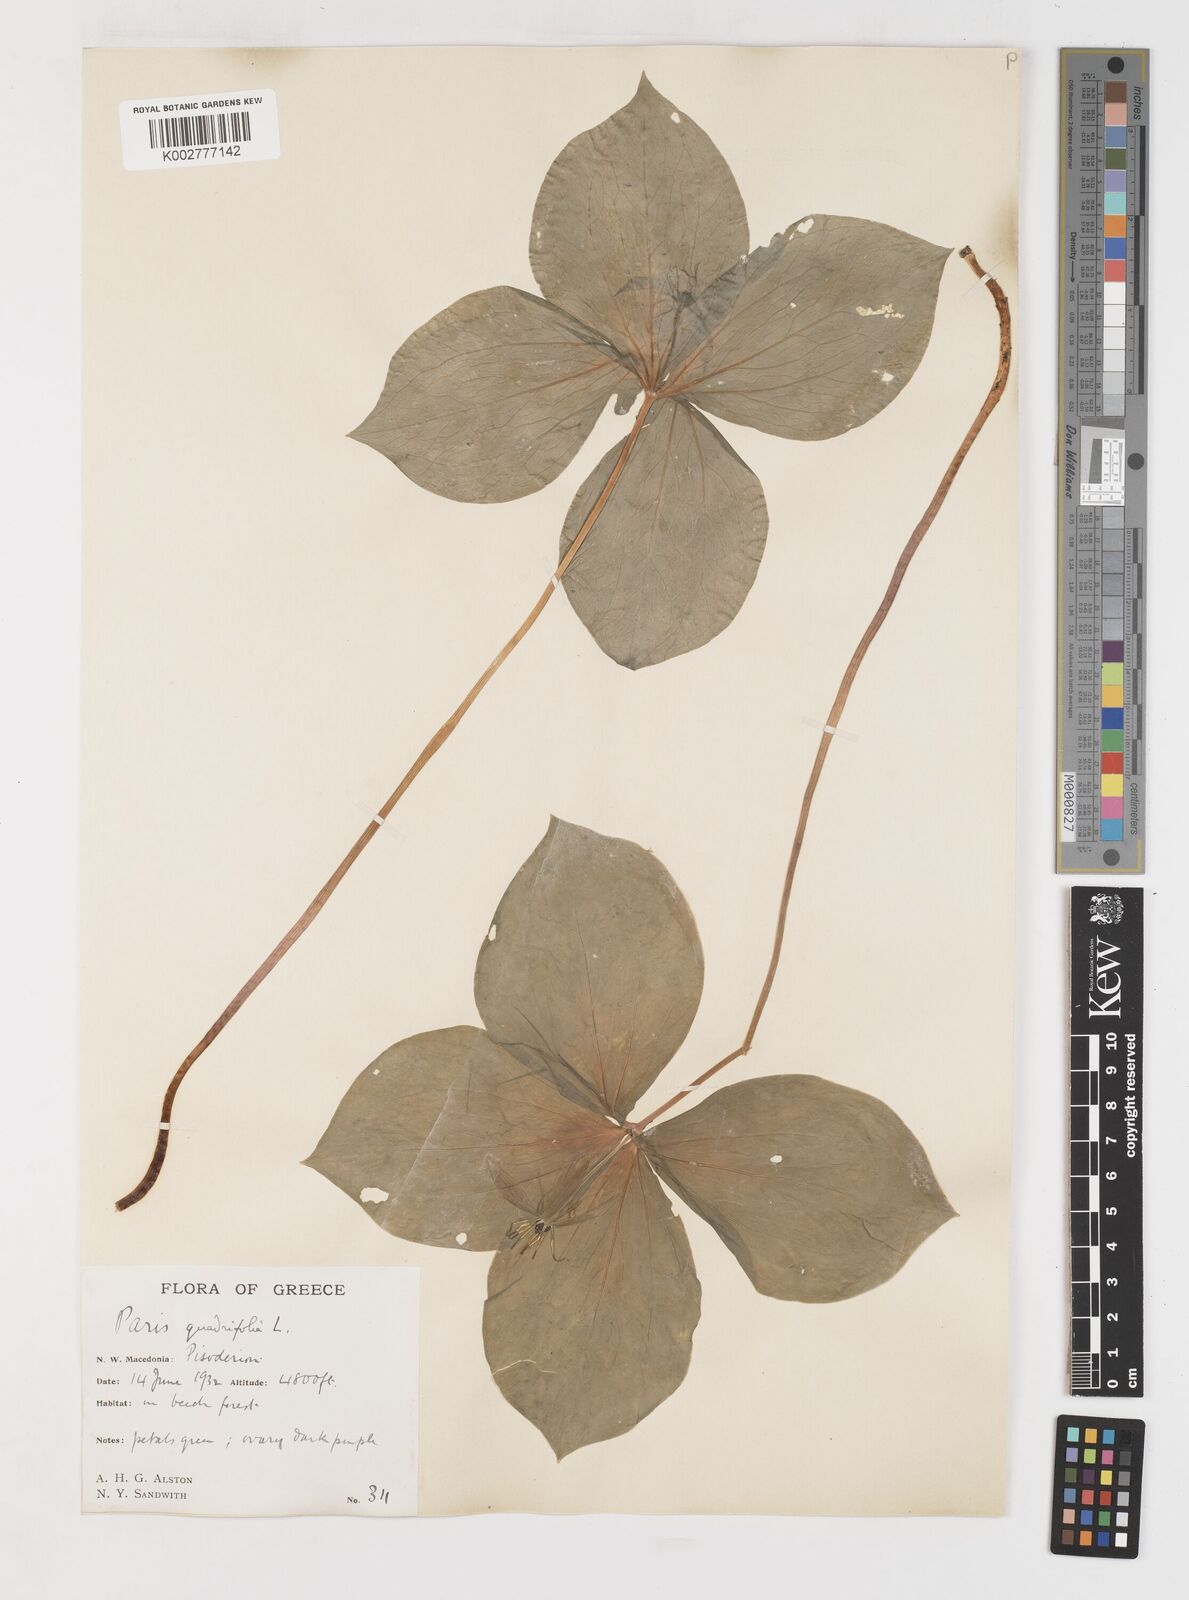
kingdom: Plantae
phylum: Tracheophyta
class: Liliopsida
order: Liliales
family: Melanthiaceae
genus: Paris
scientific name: Paris quadrifolia
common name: Herb-paris
